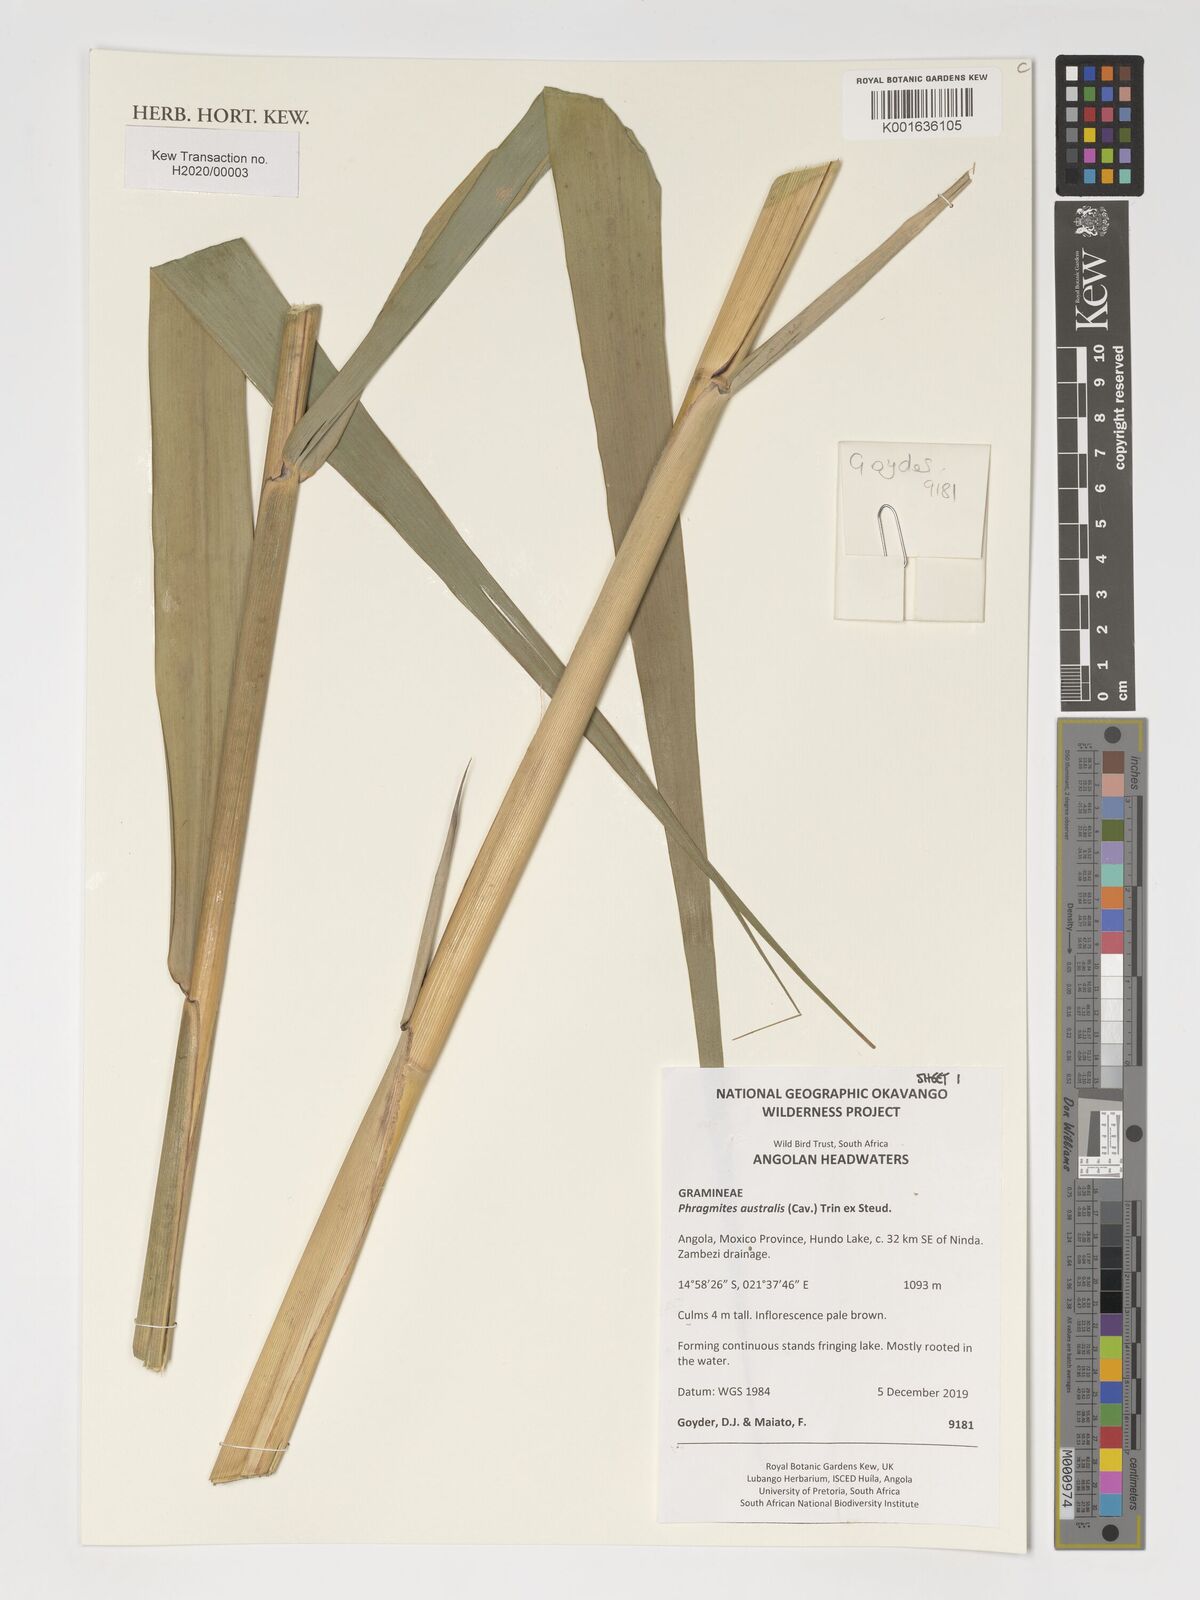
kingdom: Plantae
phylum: Tracheophyta
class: Liliopsida
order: Poales
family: Poaceae
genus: Phragmites
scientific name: Phragmites australis
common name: Common reed
